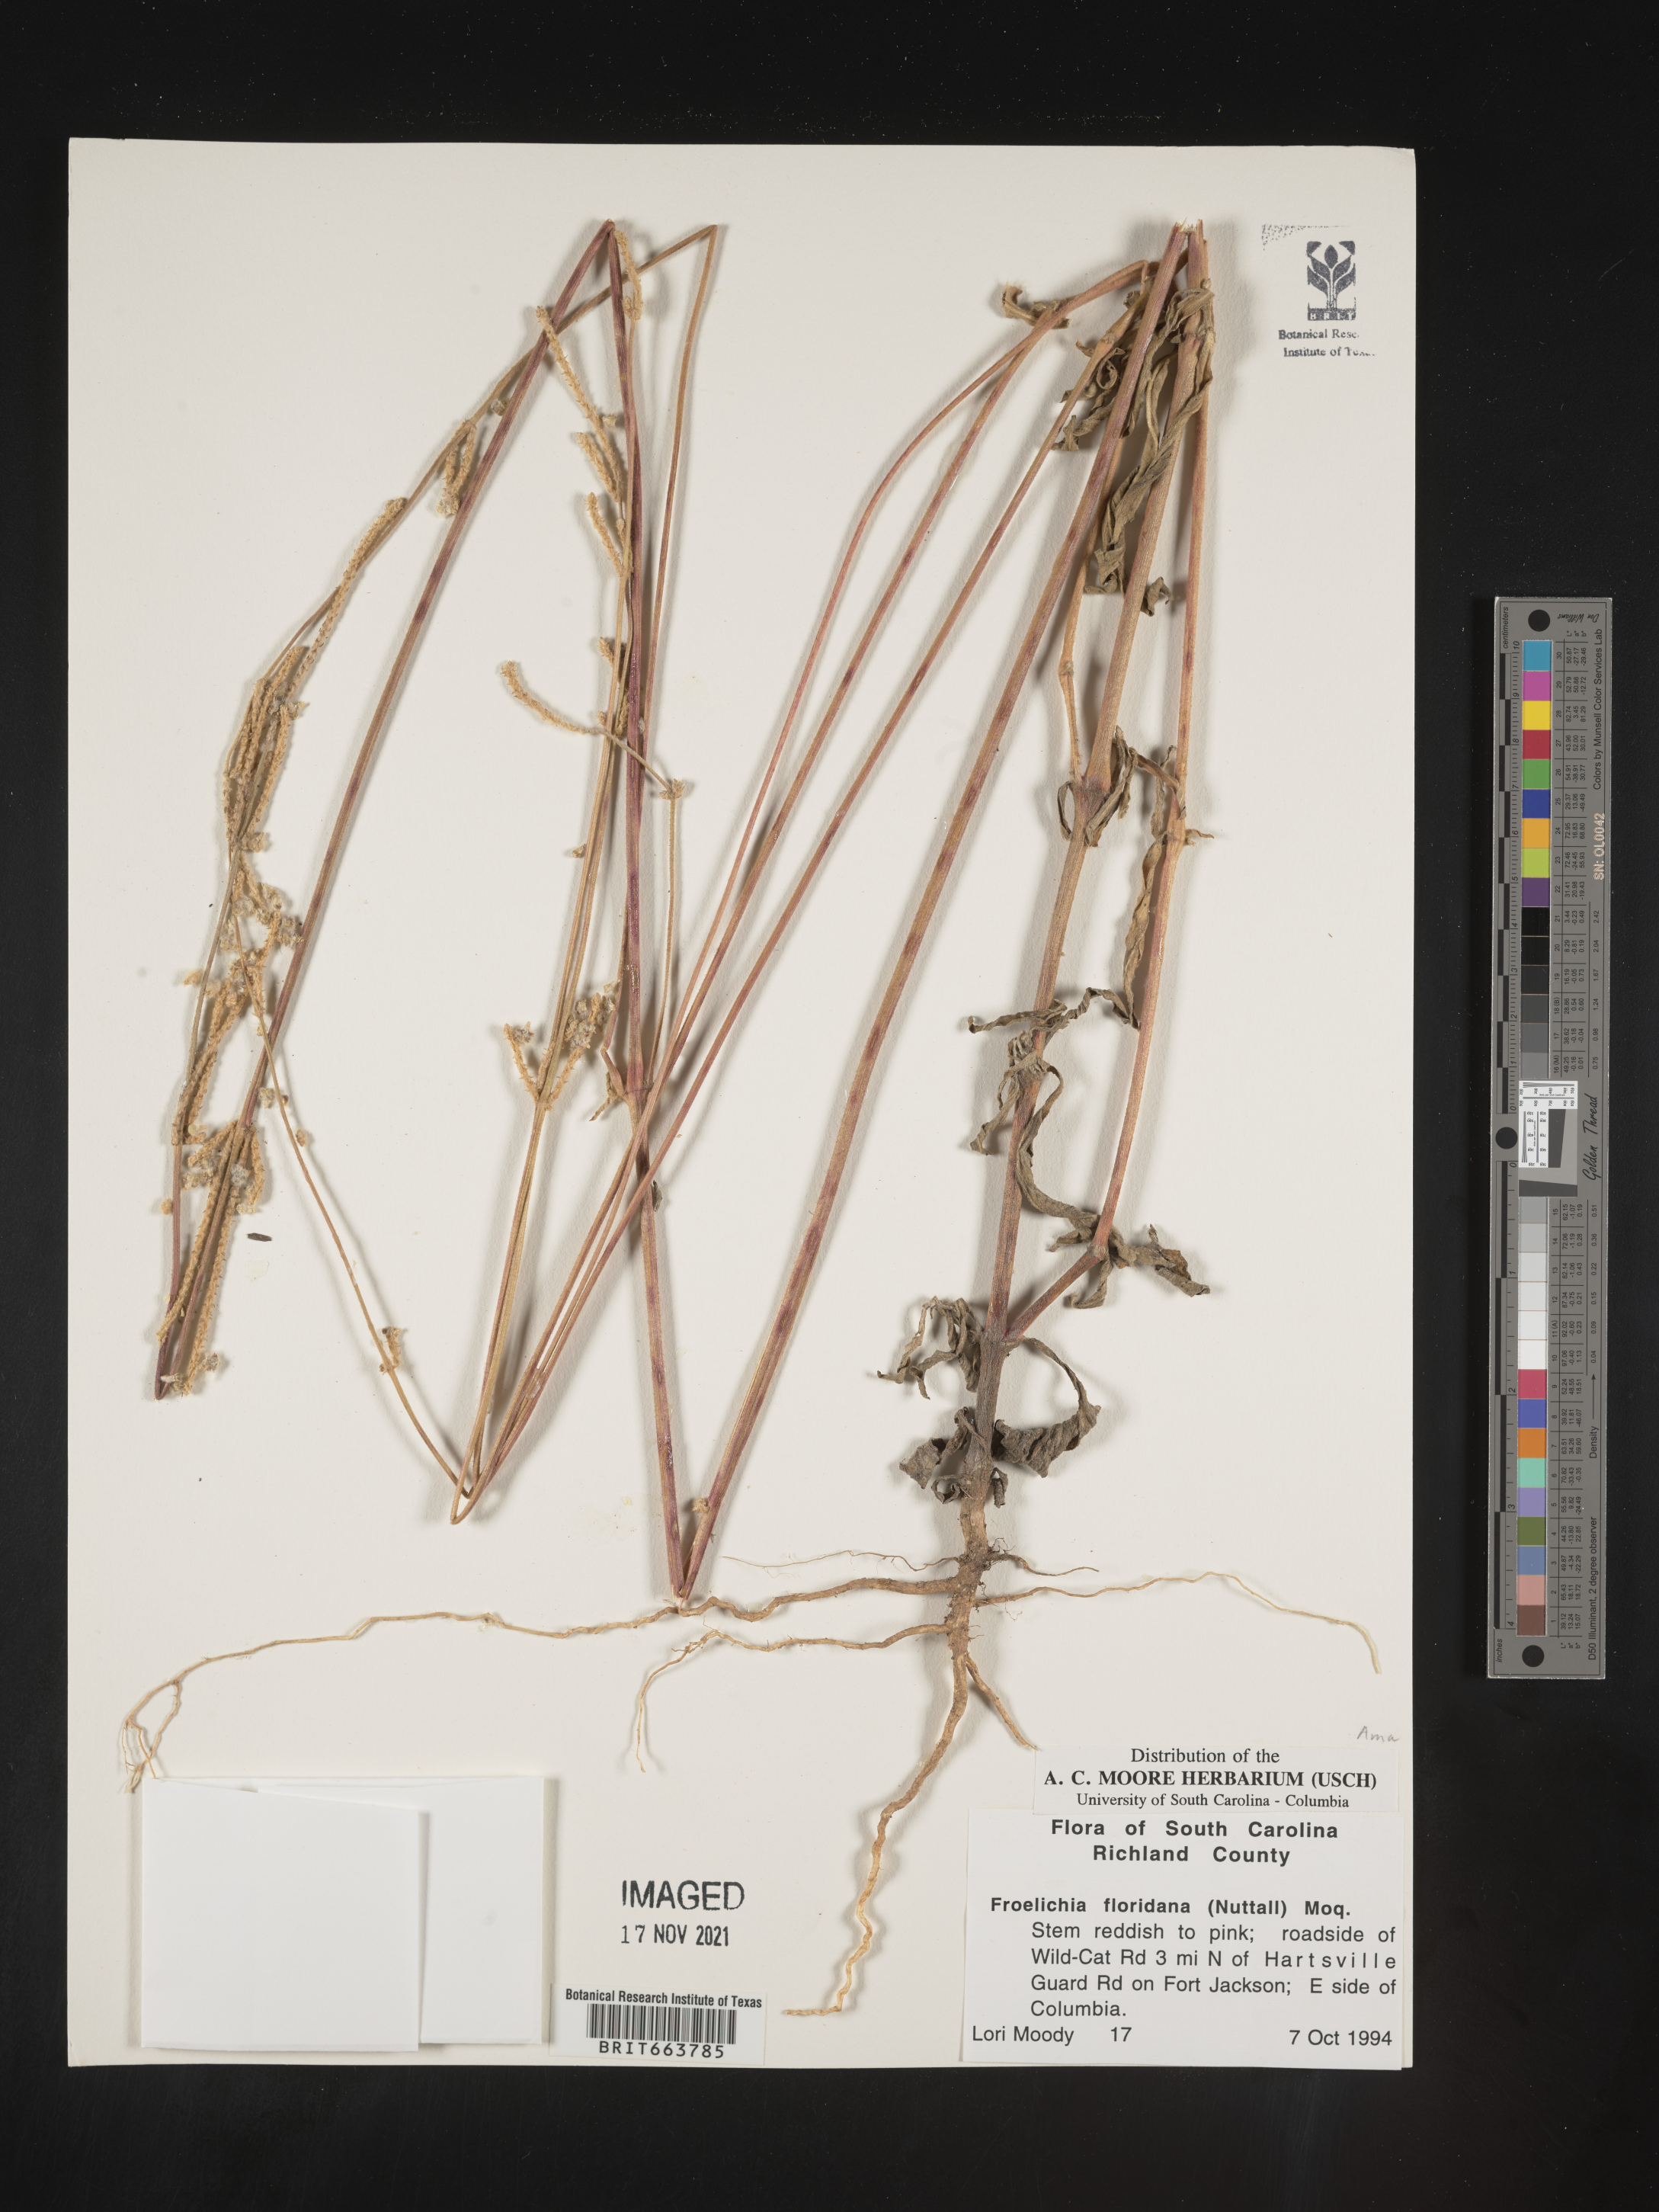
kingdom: Plantae
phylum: Tracheophyta
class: Magnoliopsida
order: Caryophyllales
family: Amaranthaceae
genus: Froelichia
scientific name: Froelichia floridana
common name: Florida snake-cotton
